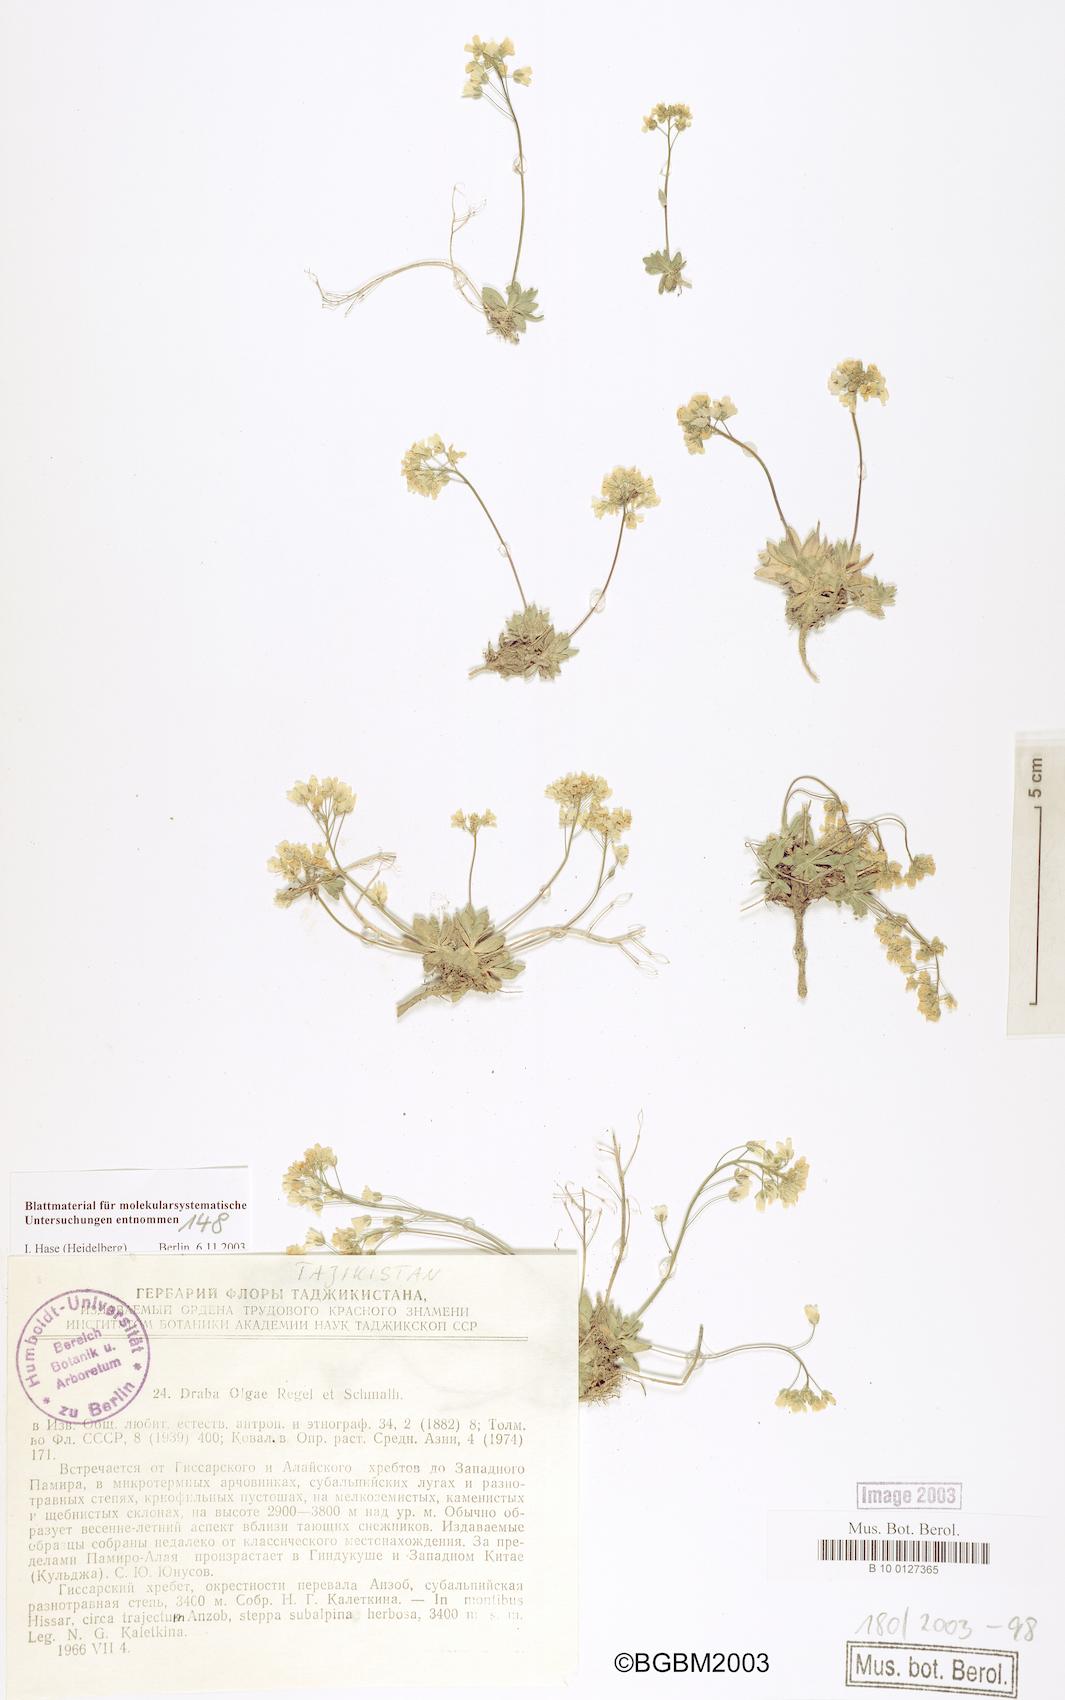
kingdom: Plantae
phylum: Tracheophyta
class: Magnoliopsida
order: Brassicales
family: Brassicaceae
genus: Draba
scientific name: Draba olgae
